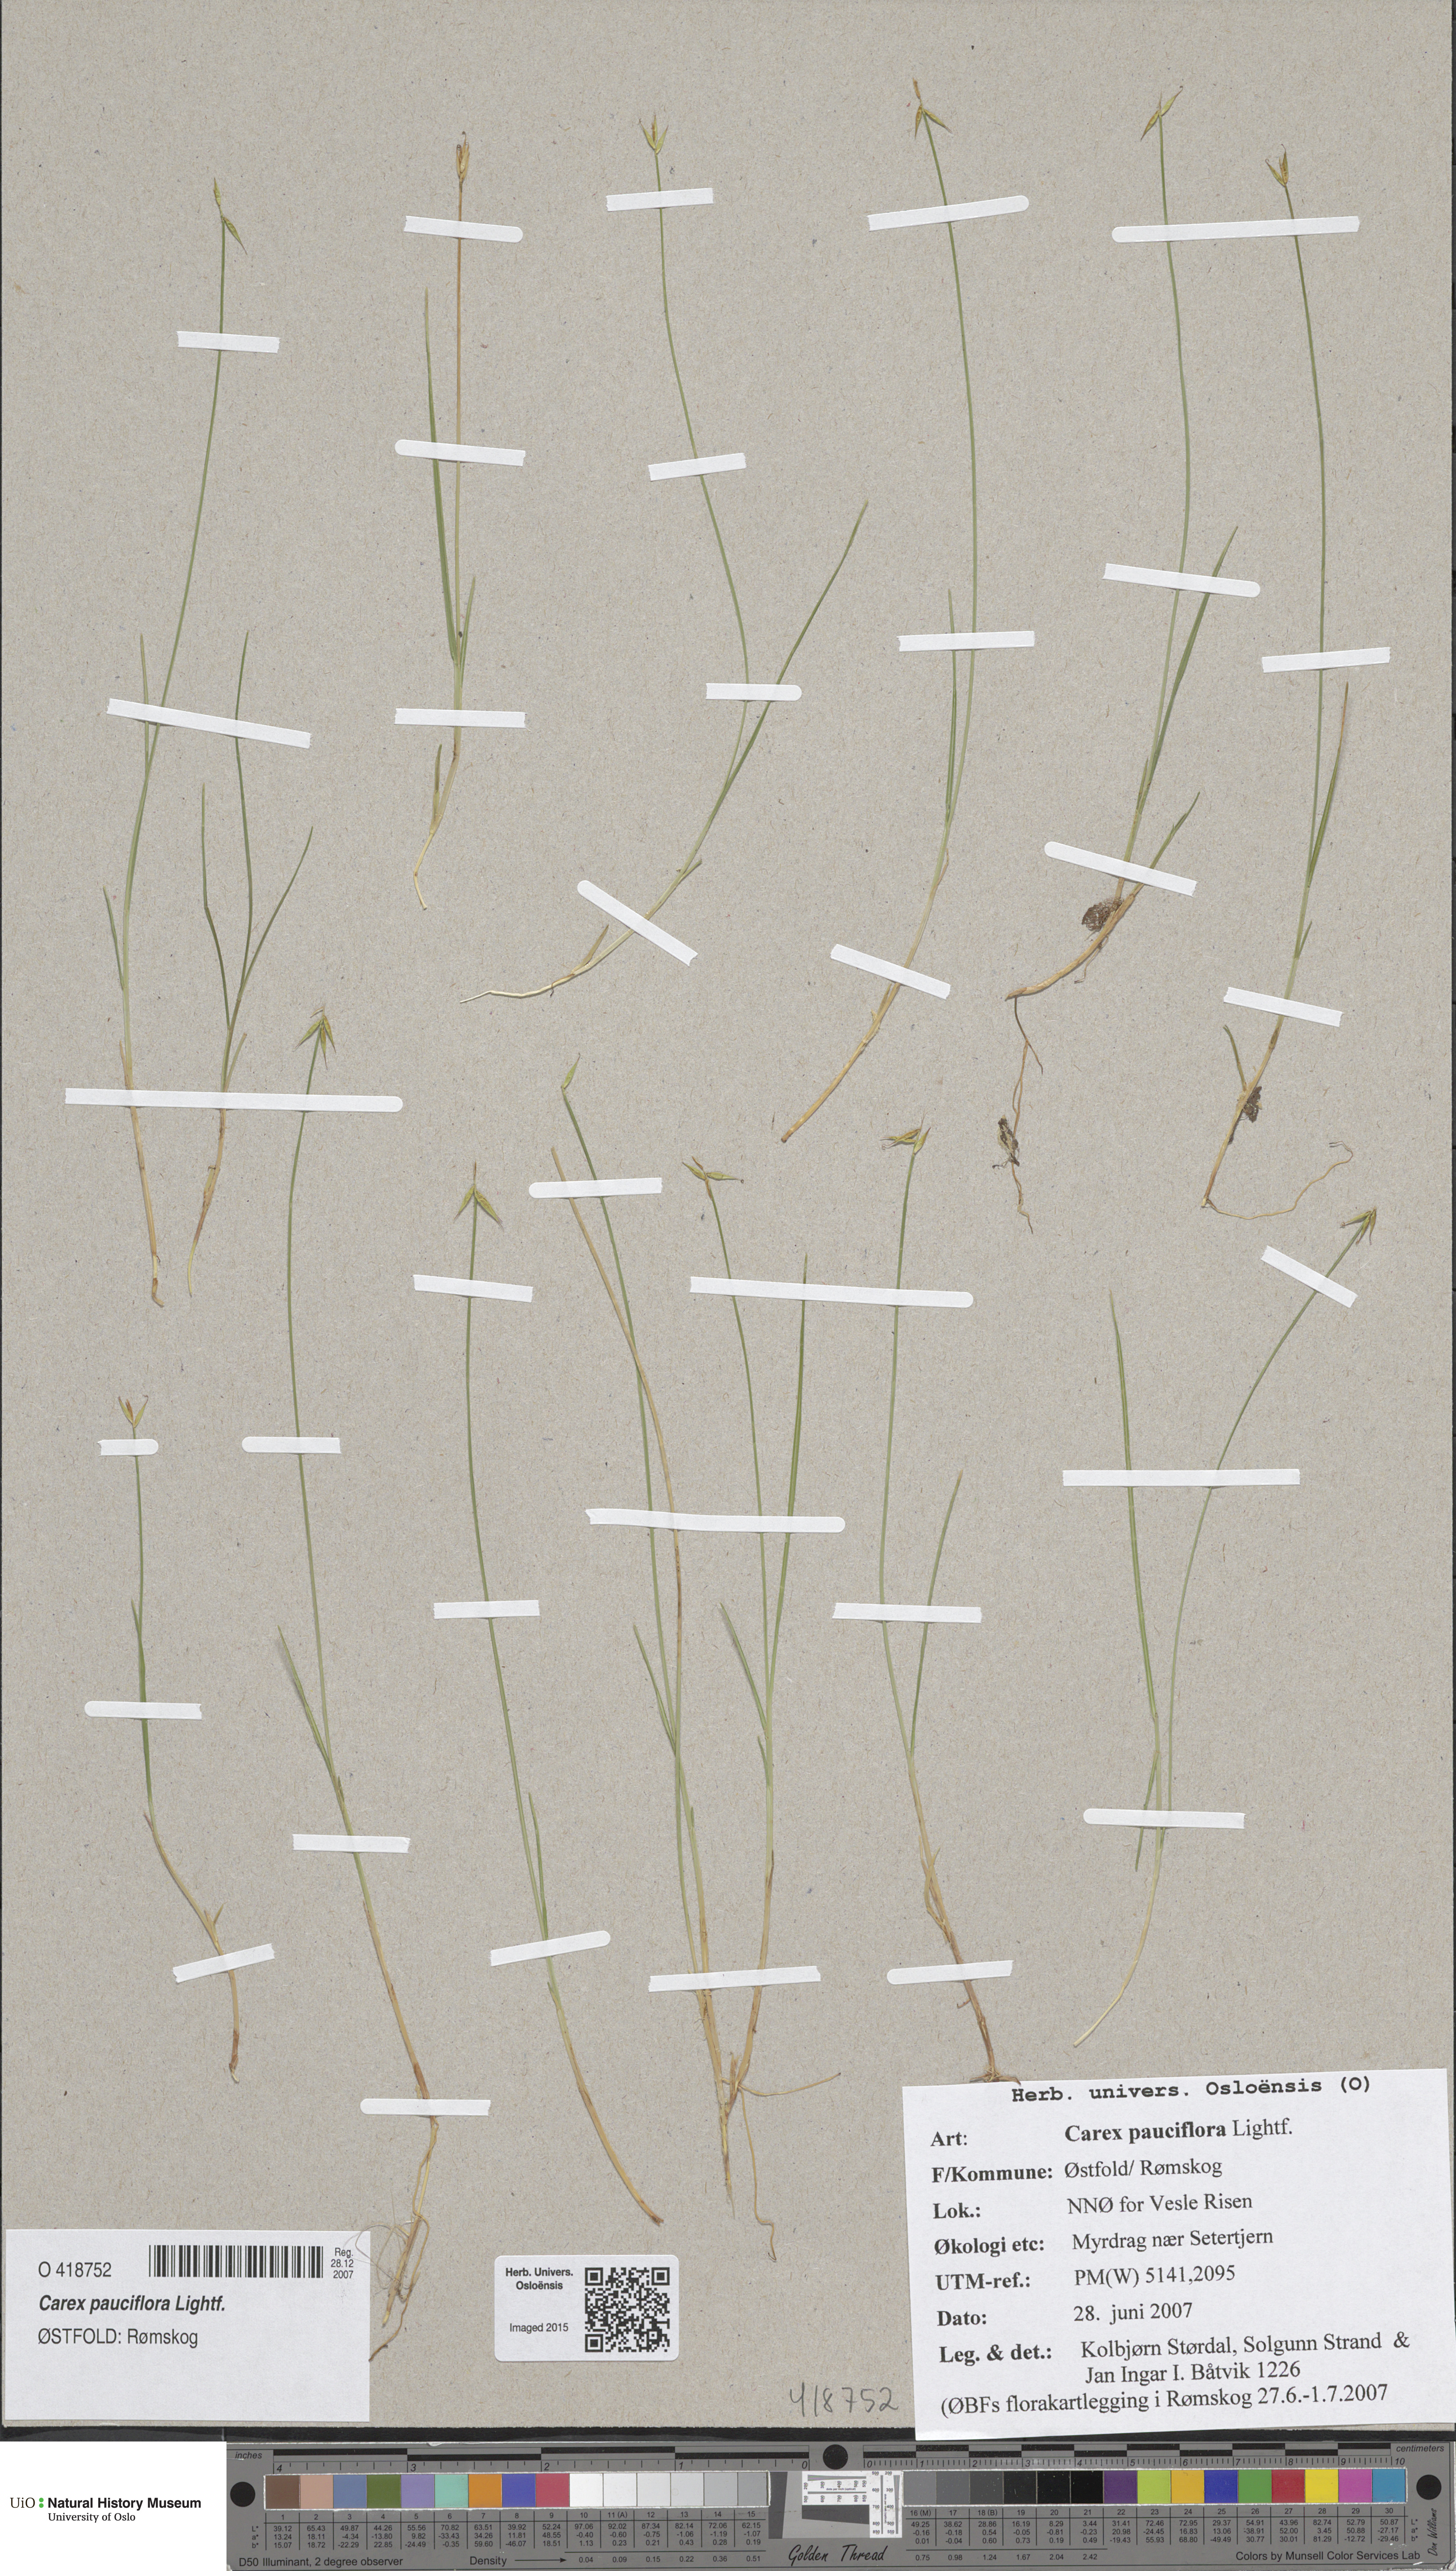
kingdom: Plantae
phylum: Tracheophyta
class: Liliopsida
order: Poales
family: Cyperaceae
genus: Carex
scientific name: Carex pauciflora
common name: Few-flowered sedge
